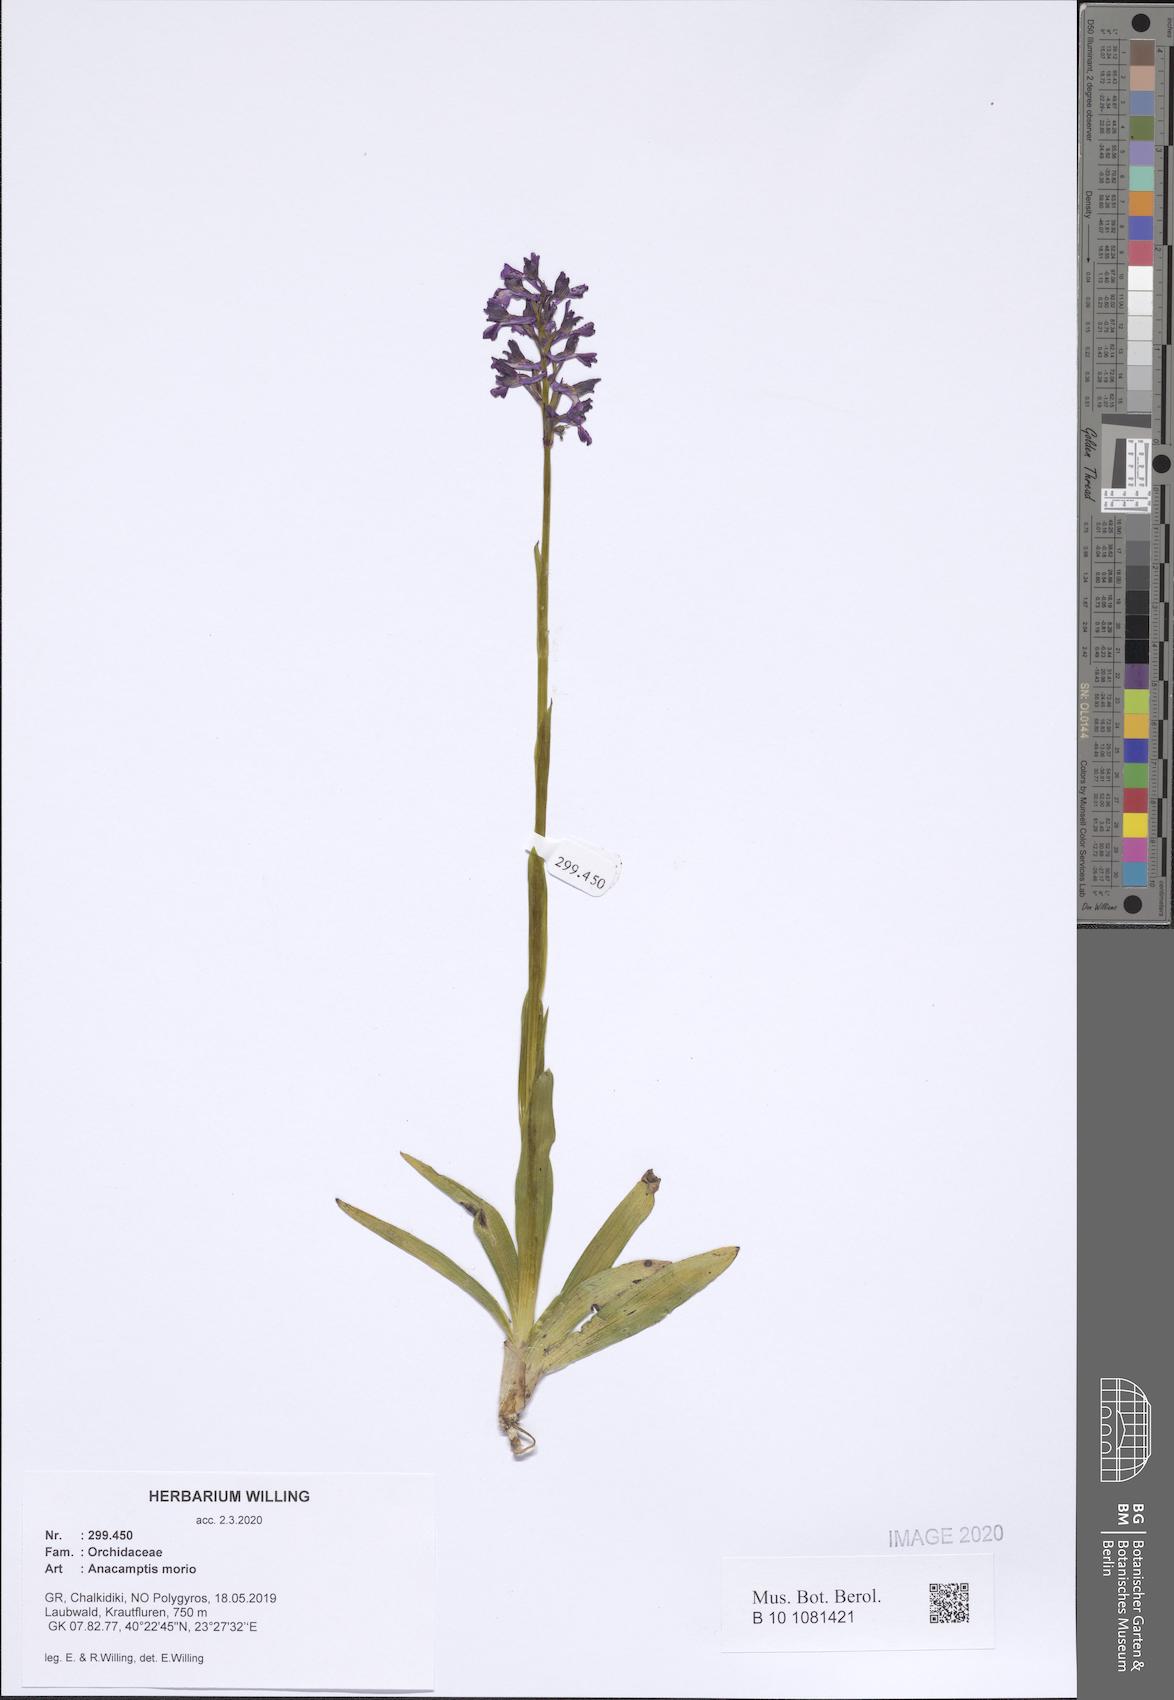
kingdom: Plantae
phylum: Tracheophyta
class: Liliopsida
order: Asparagales
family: Orchidaceae
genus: Anacamptis
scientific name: Anacamptis morio
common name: Green-winged orchid
